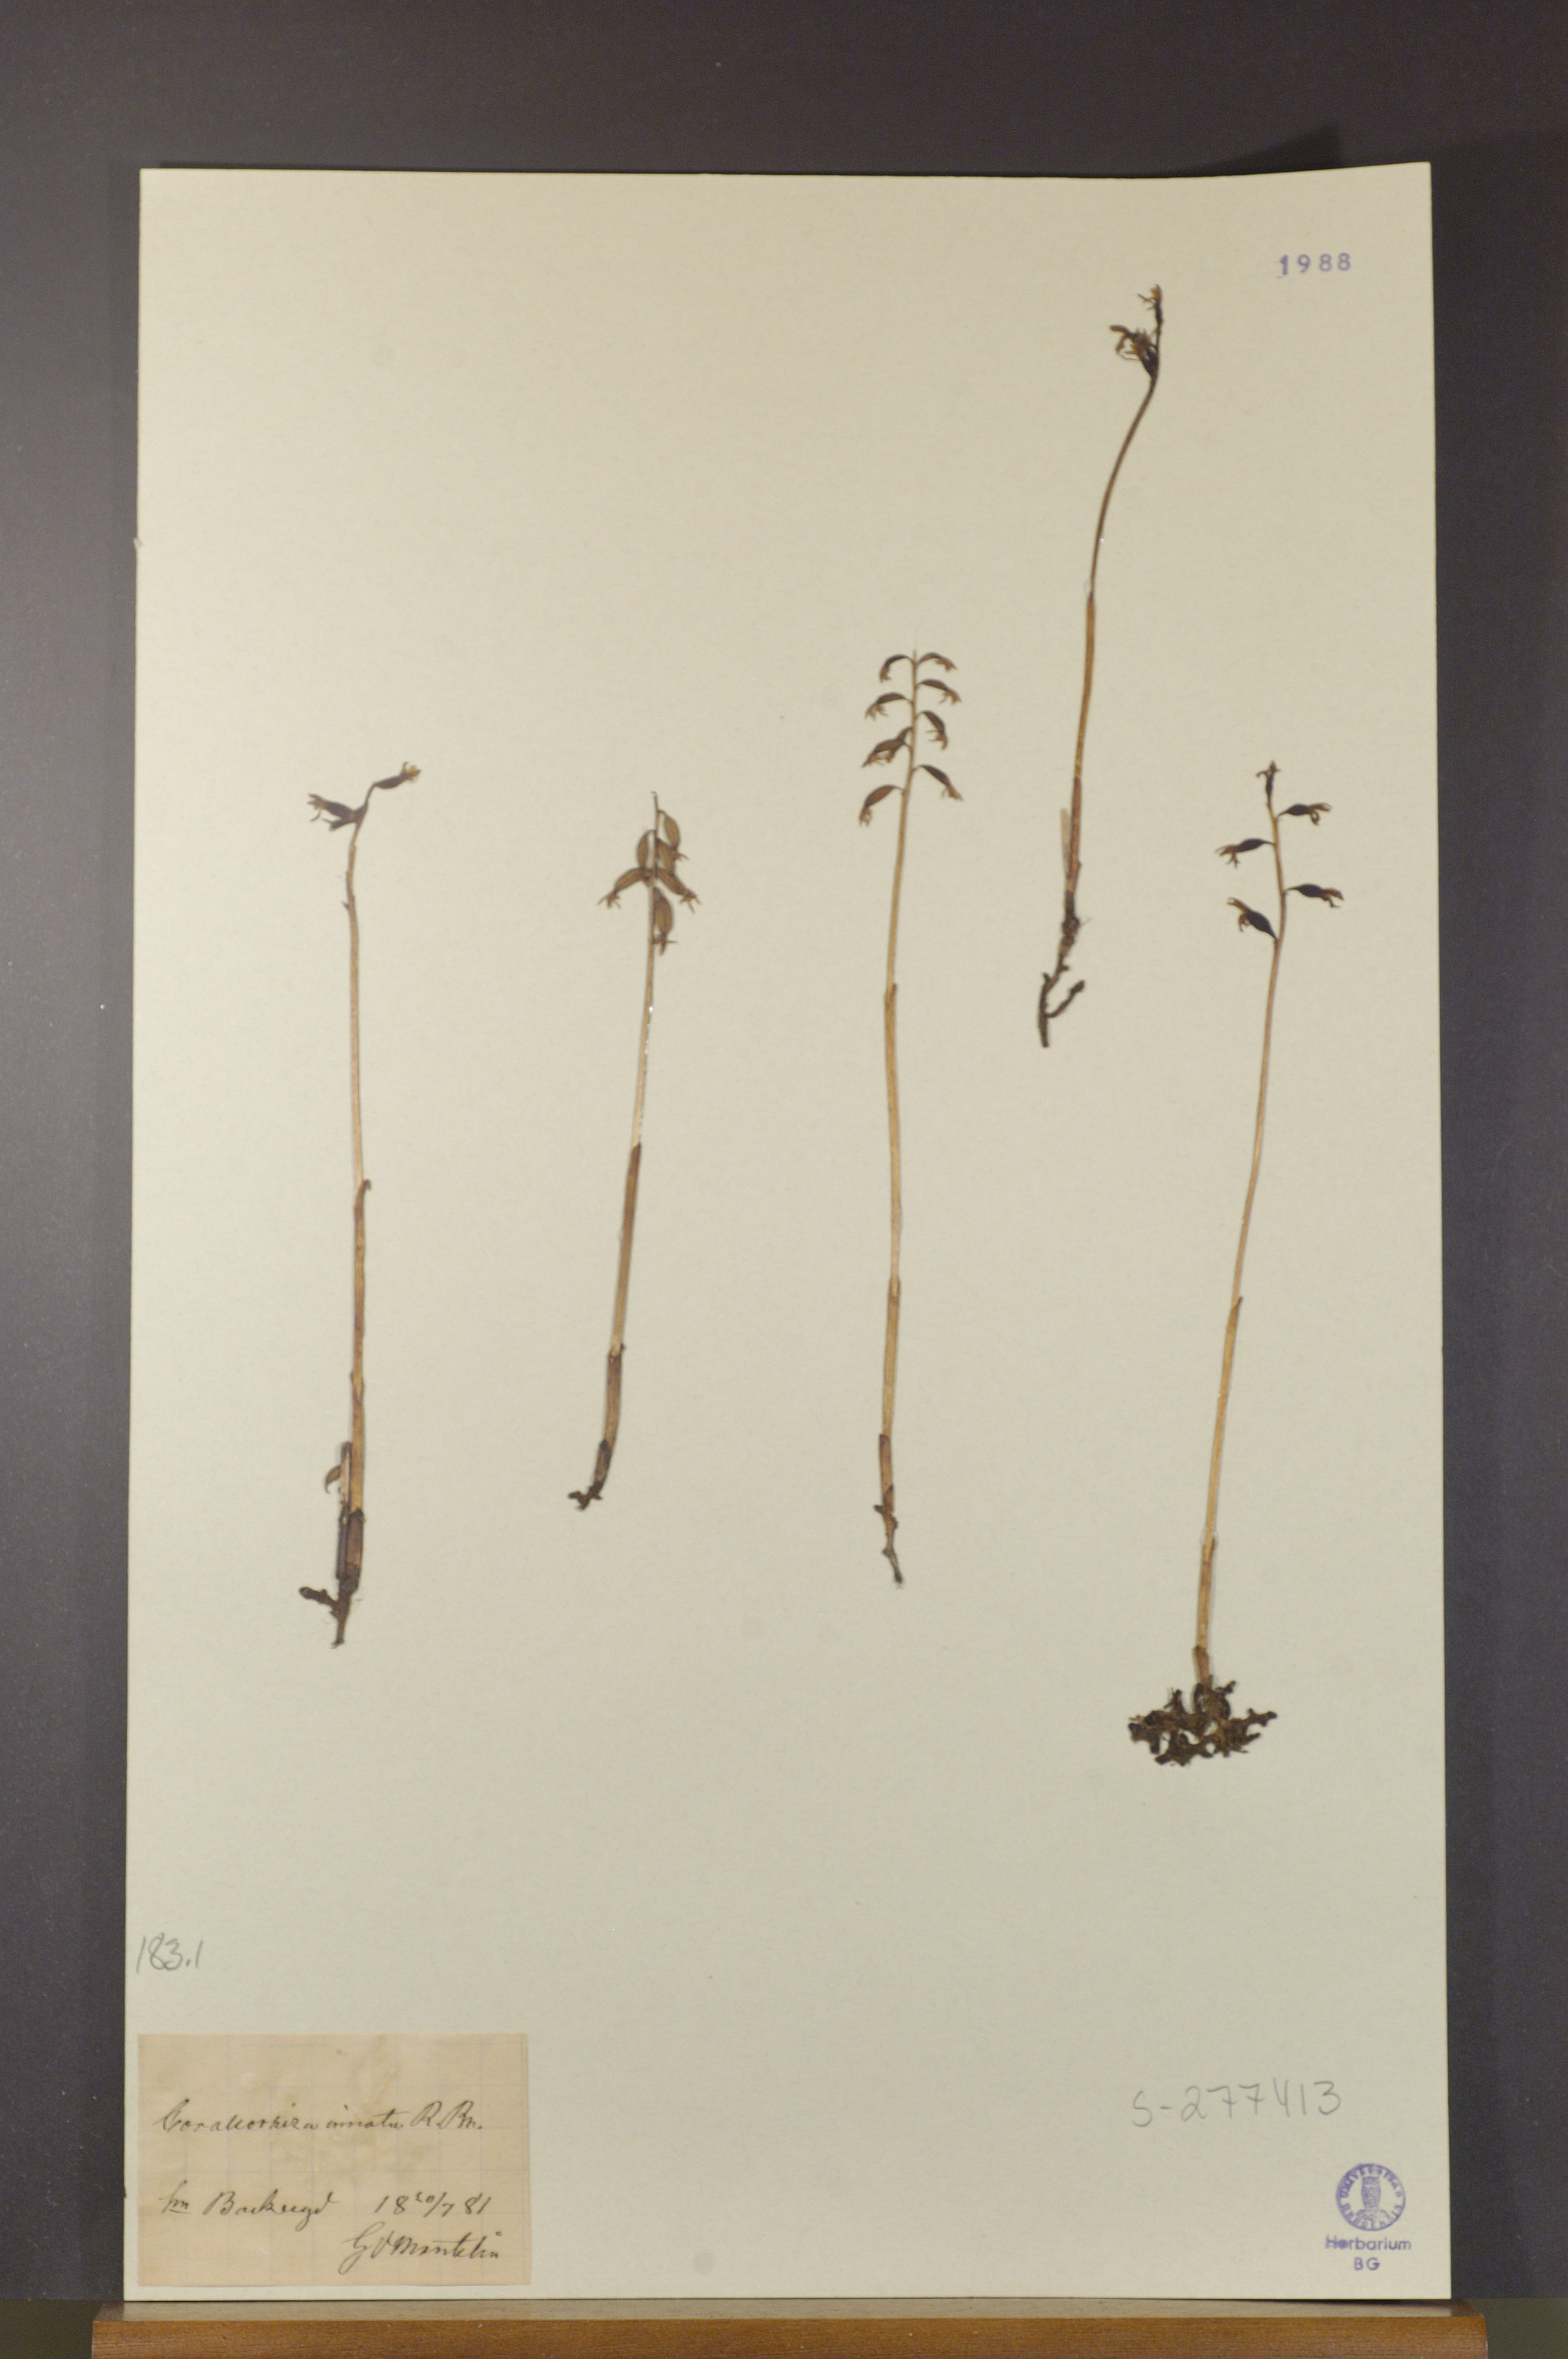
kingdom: Plantae
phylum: Tracheophyta
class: Liliopsida
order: Asparagales
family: Orchidaceae
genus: Corallorhiza
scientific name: Corallorhiza trifida
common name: Yellow coralroot
